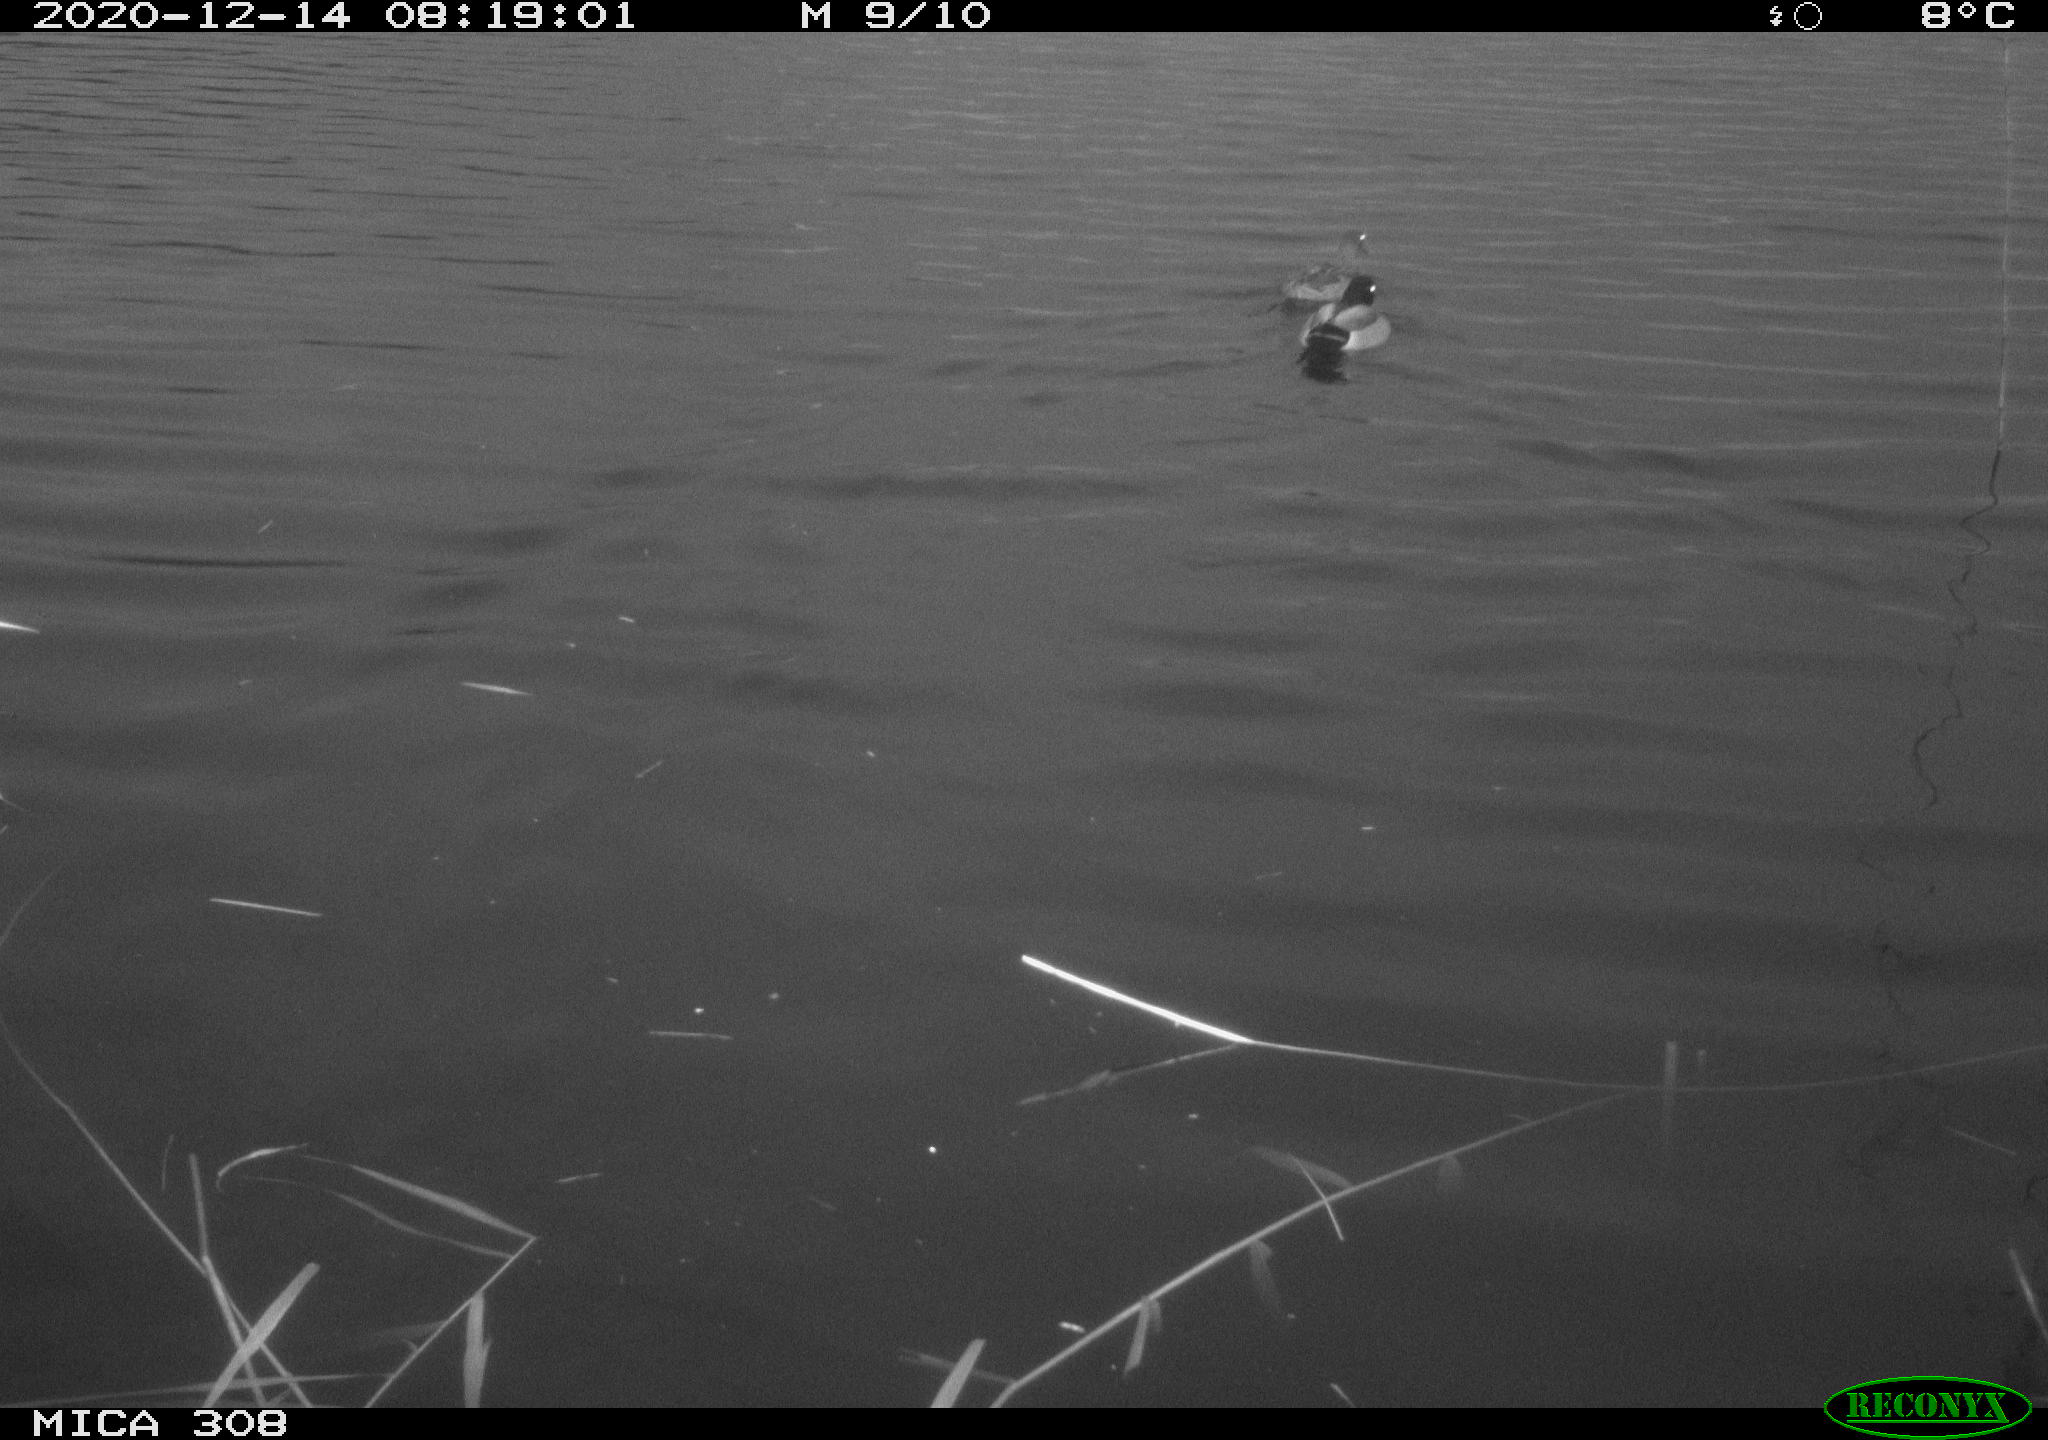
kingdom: Animalia
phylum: Chordata
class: Aves
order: Anseriformes
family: Anatidae
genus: Anas
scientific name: Anas platyrhynchos
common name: Mallard
